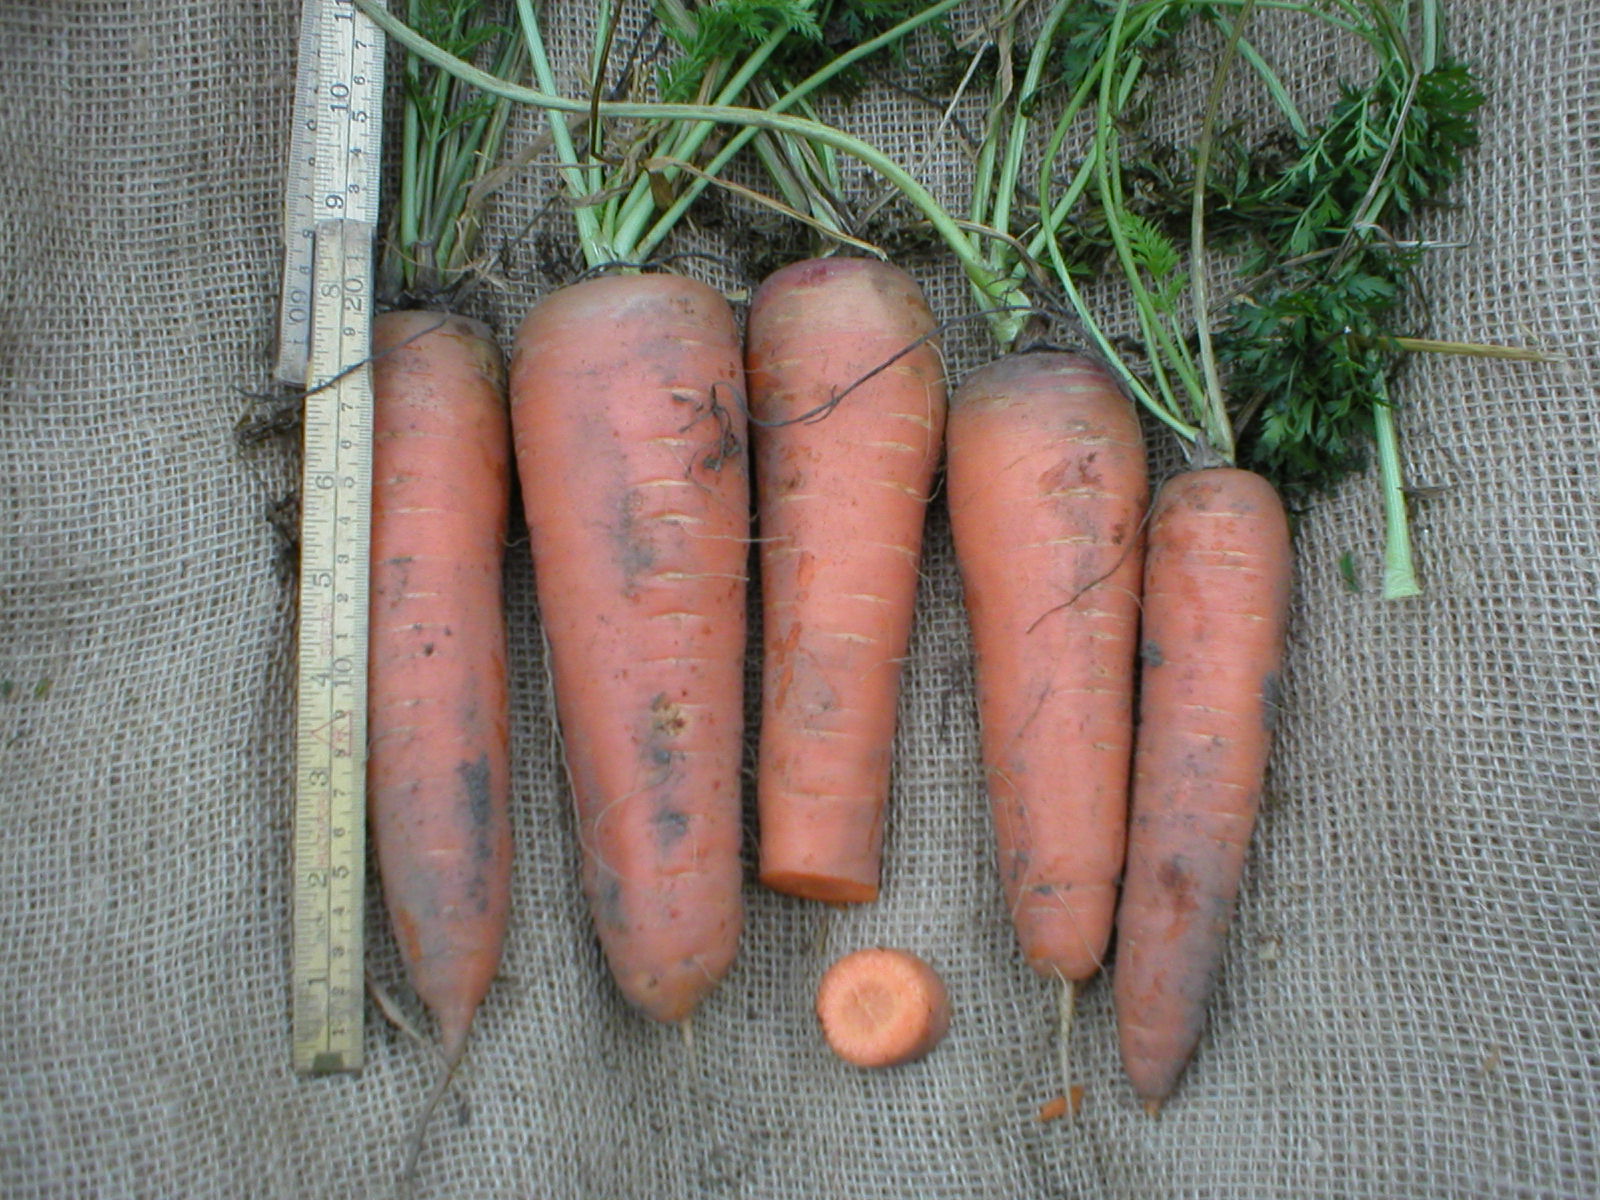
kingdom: Plantae
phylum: Tracheophyta
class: Magnoliopsida
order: Apiales
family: Apiaceae
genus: Daucus
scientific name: Daucus carota
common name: Wild carrot
